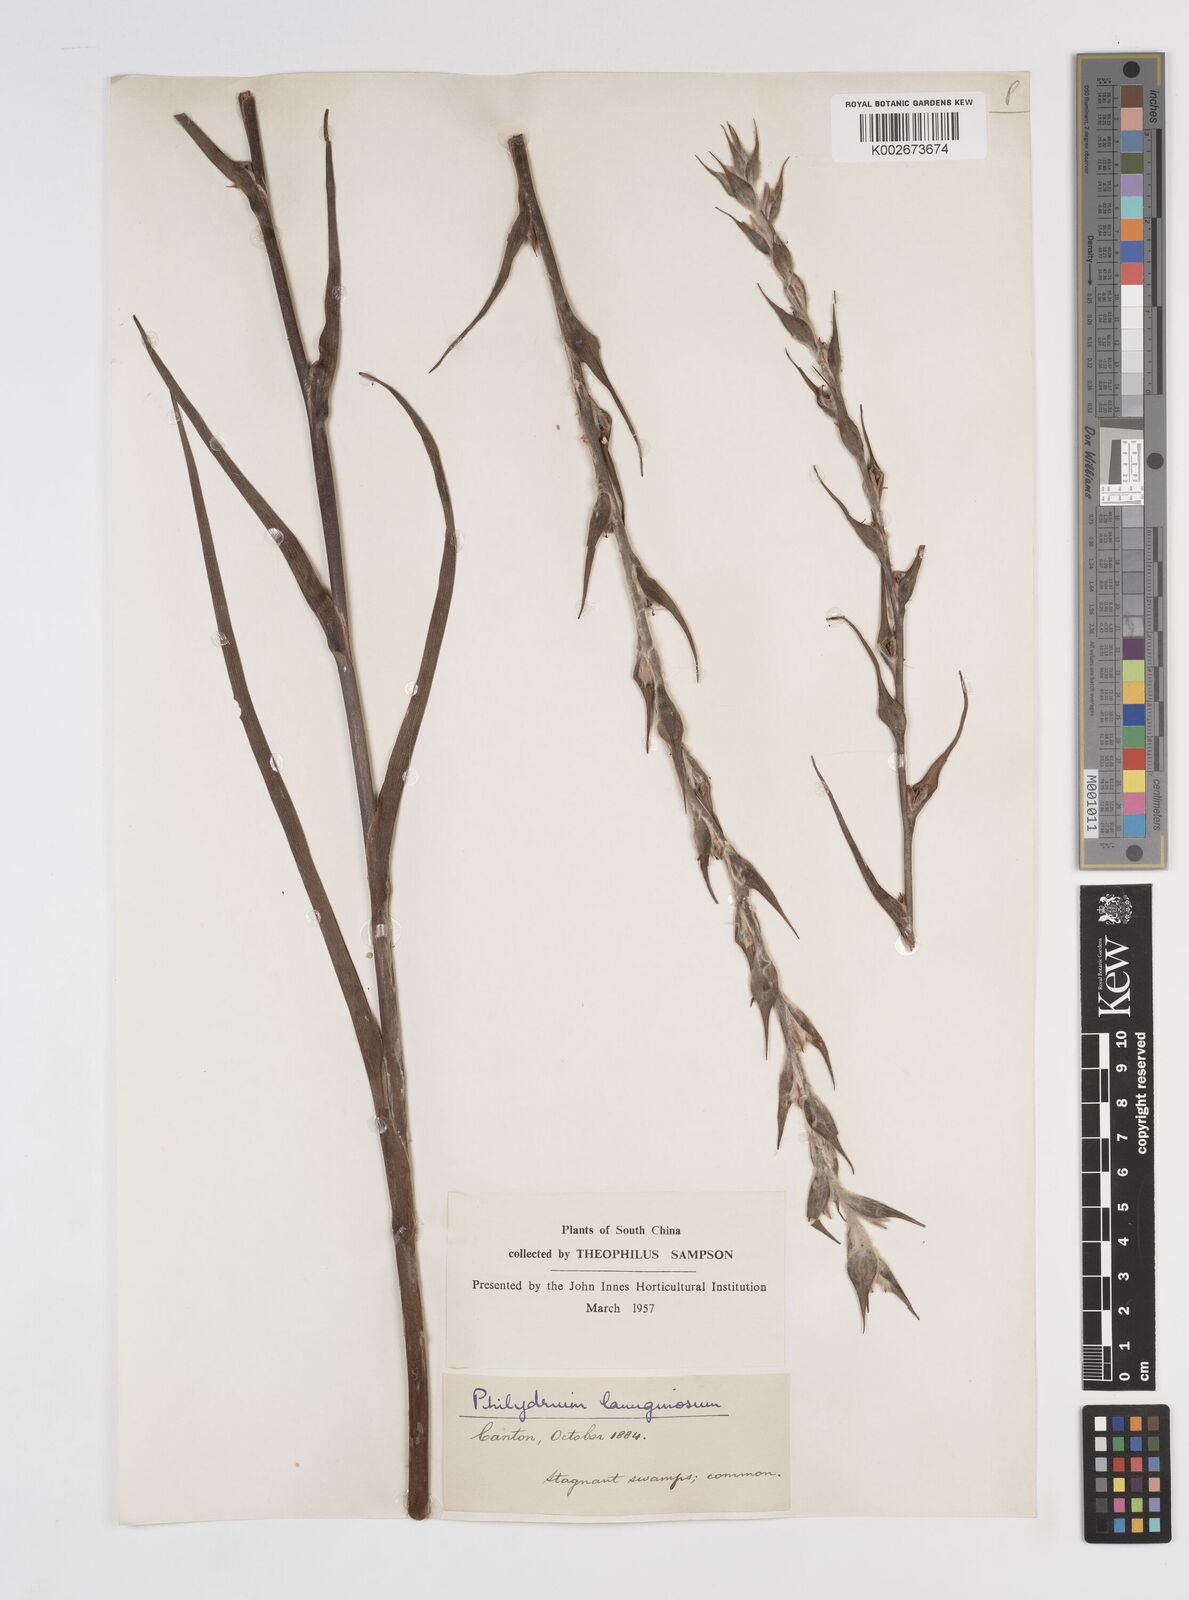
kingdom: Plantae
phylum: Tracheophyta
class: Liliopsida
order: Commelinales
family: Philydraceae
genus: Philydrum
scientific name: Philydrum lanuginosum
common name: Woolly frog's mouth
